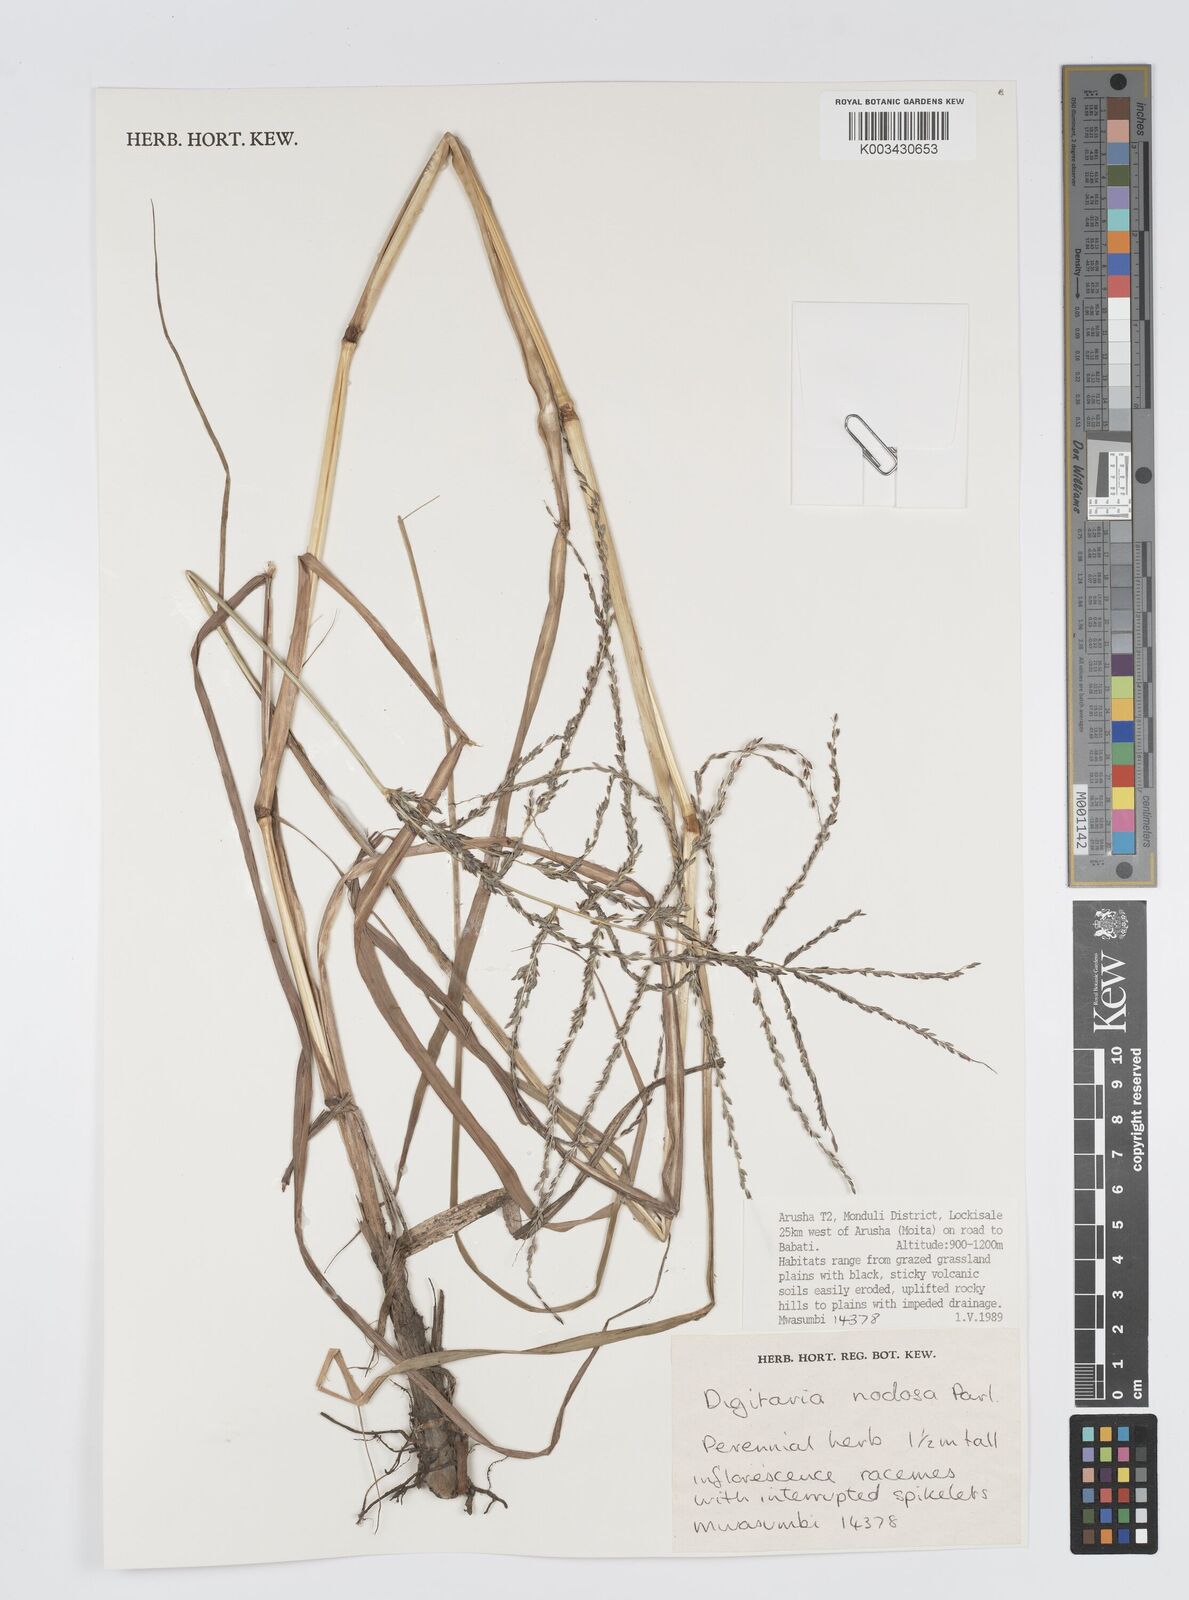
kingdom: Plantae
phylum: Tracheophyta
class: Liliopsida
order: Poales
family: Poaceae
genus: Digitaria
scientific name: Digitaria nodosa
